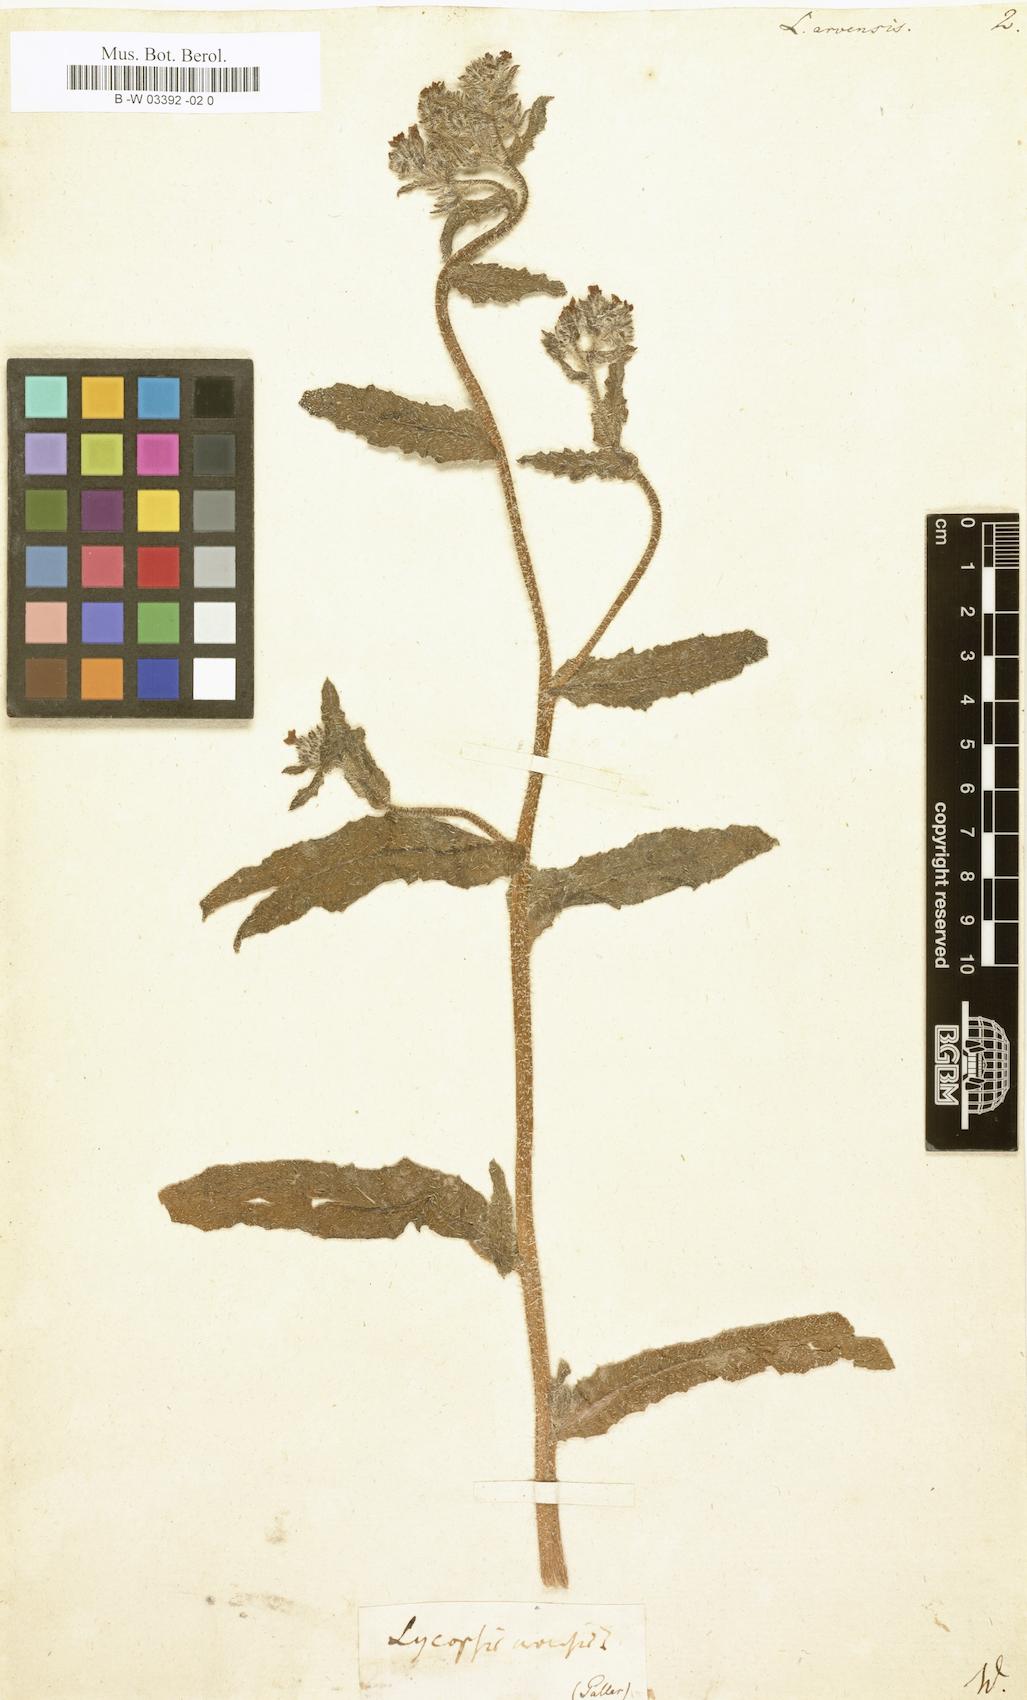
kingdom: Plantae
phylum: Tracheophyta
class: Magnoliopsida
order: Boraginales
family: Boraginaceae
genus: Lycopsis
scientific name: Lycopsis arvensis
